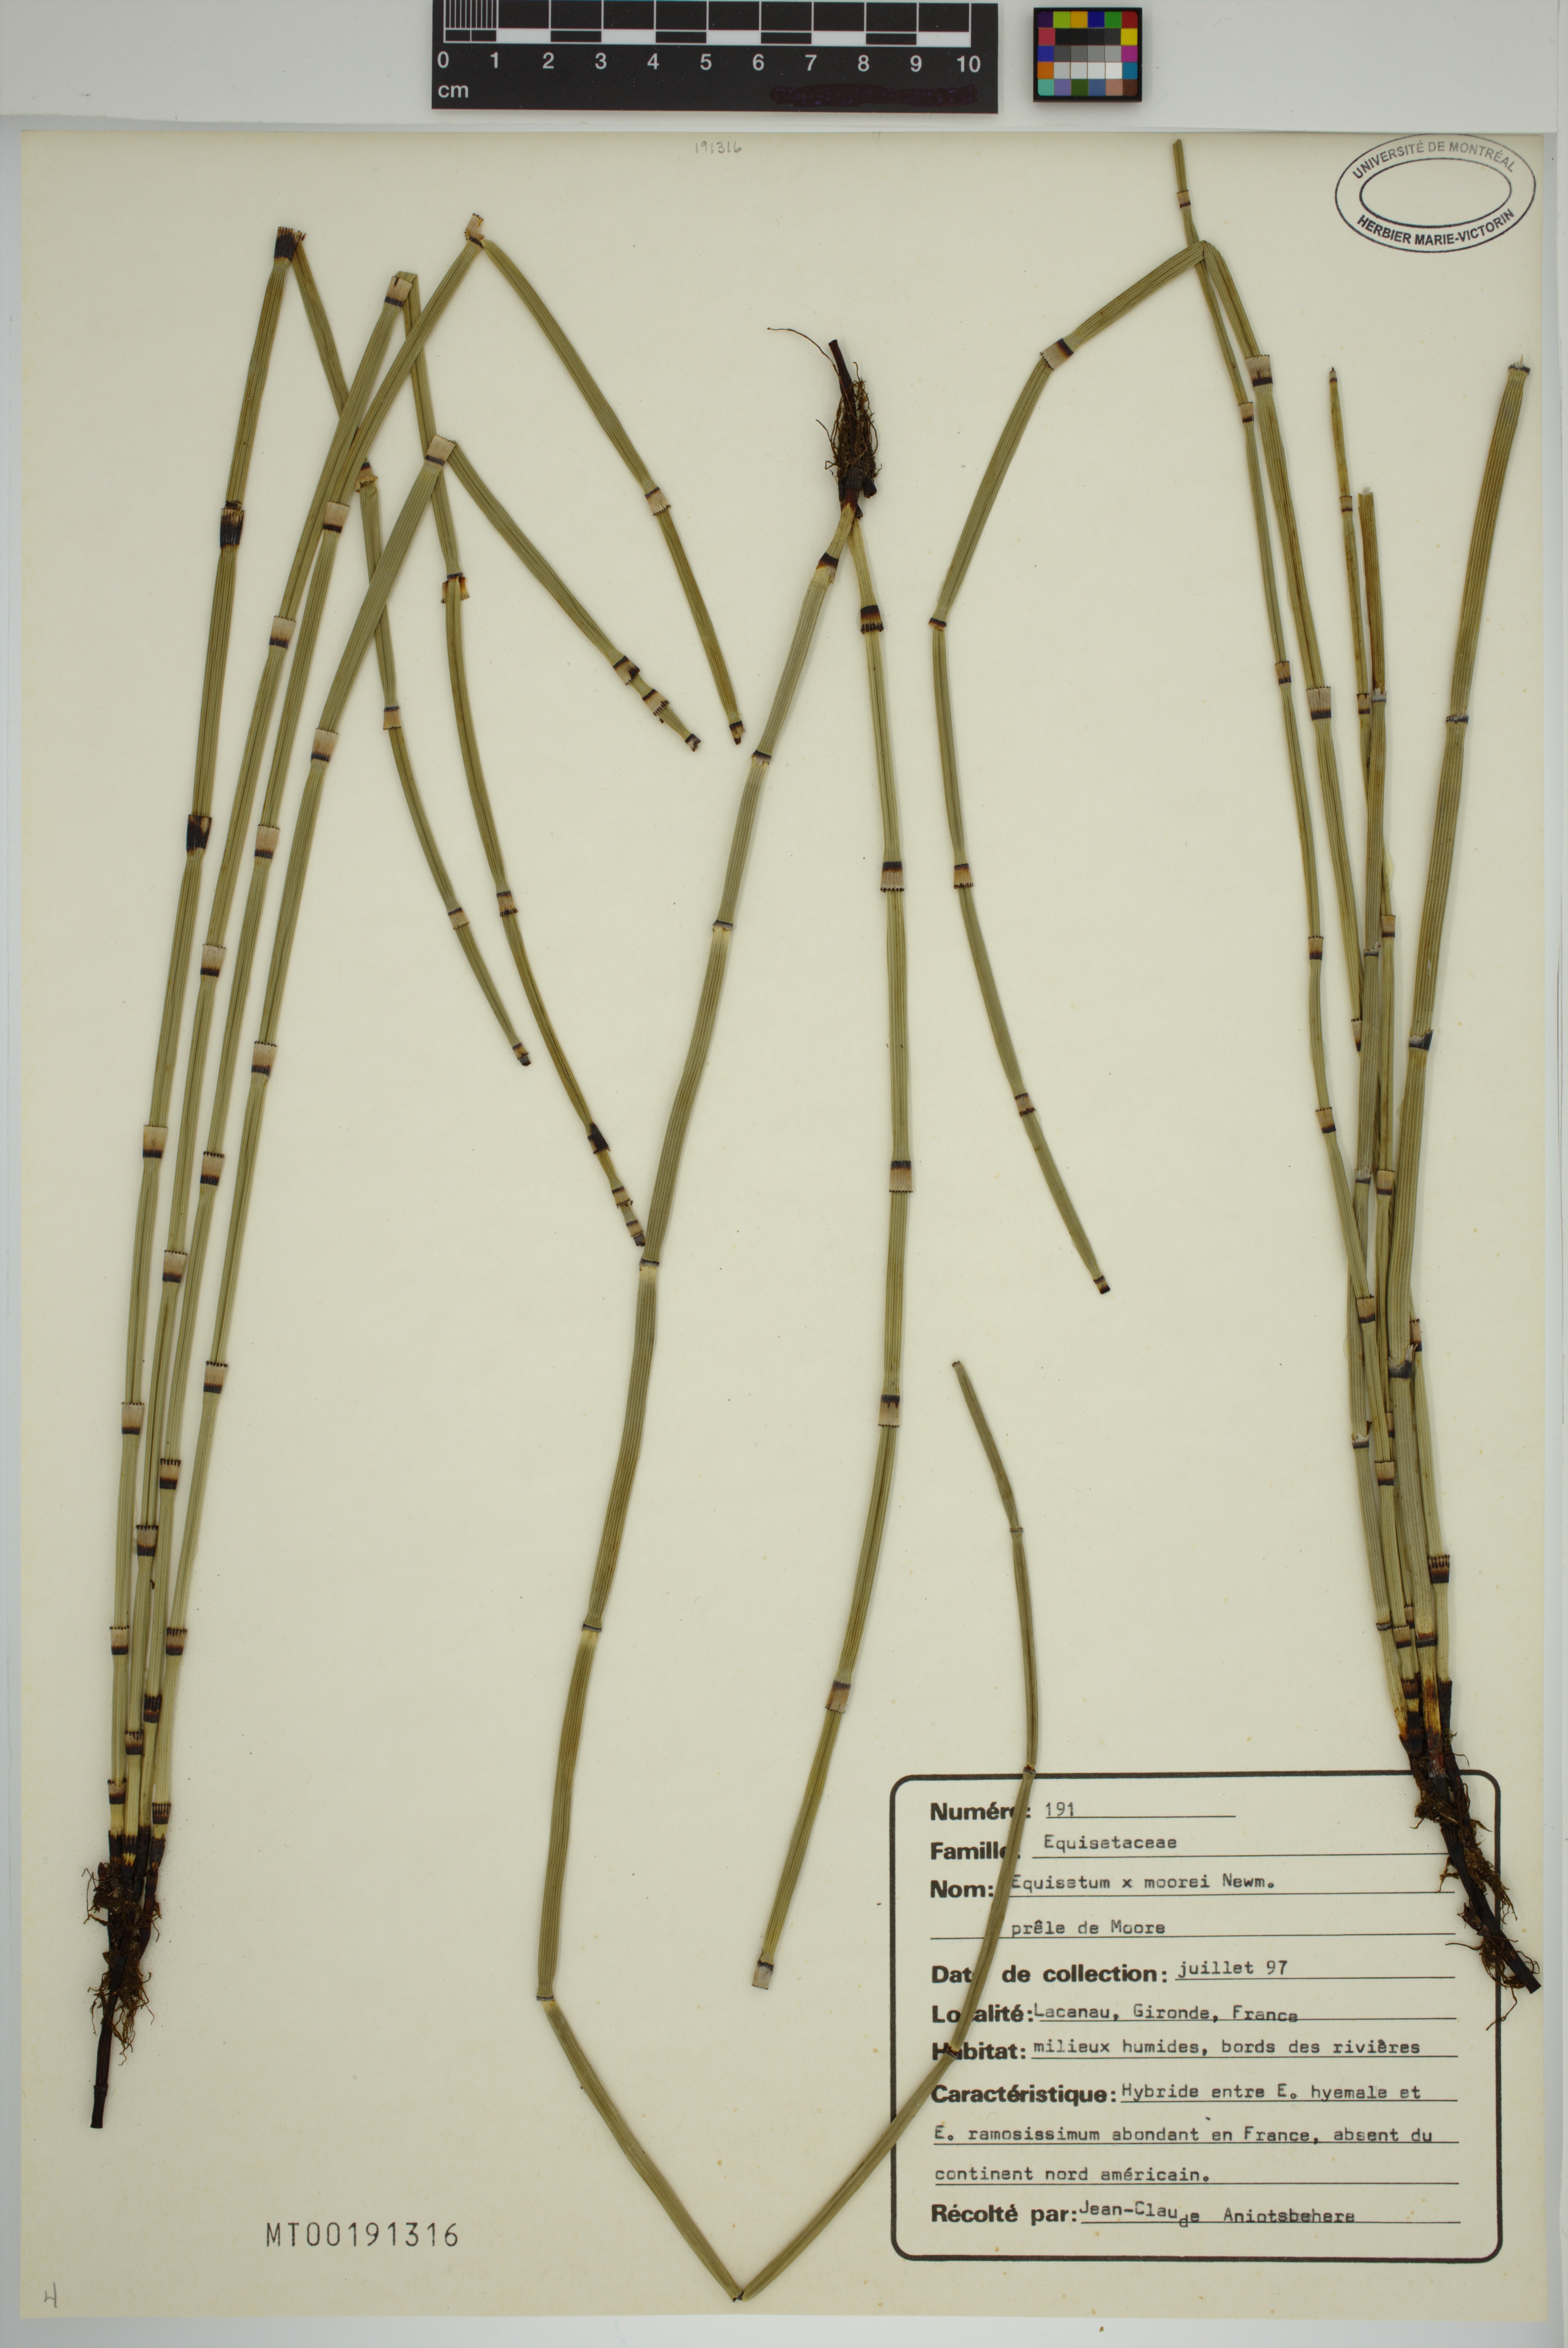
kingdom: Plantae
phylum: Tracheophyta
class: Polypodiopsida
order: Equisetales
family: Equisetaceae
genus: Equisetum
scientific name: Equisetum moorei
